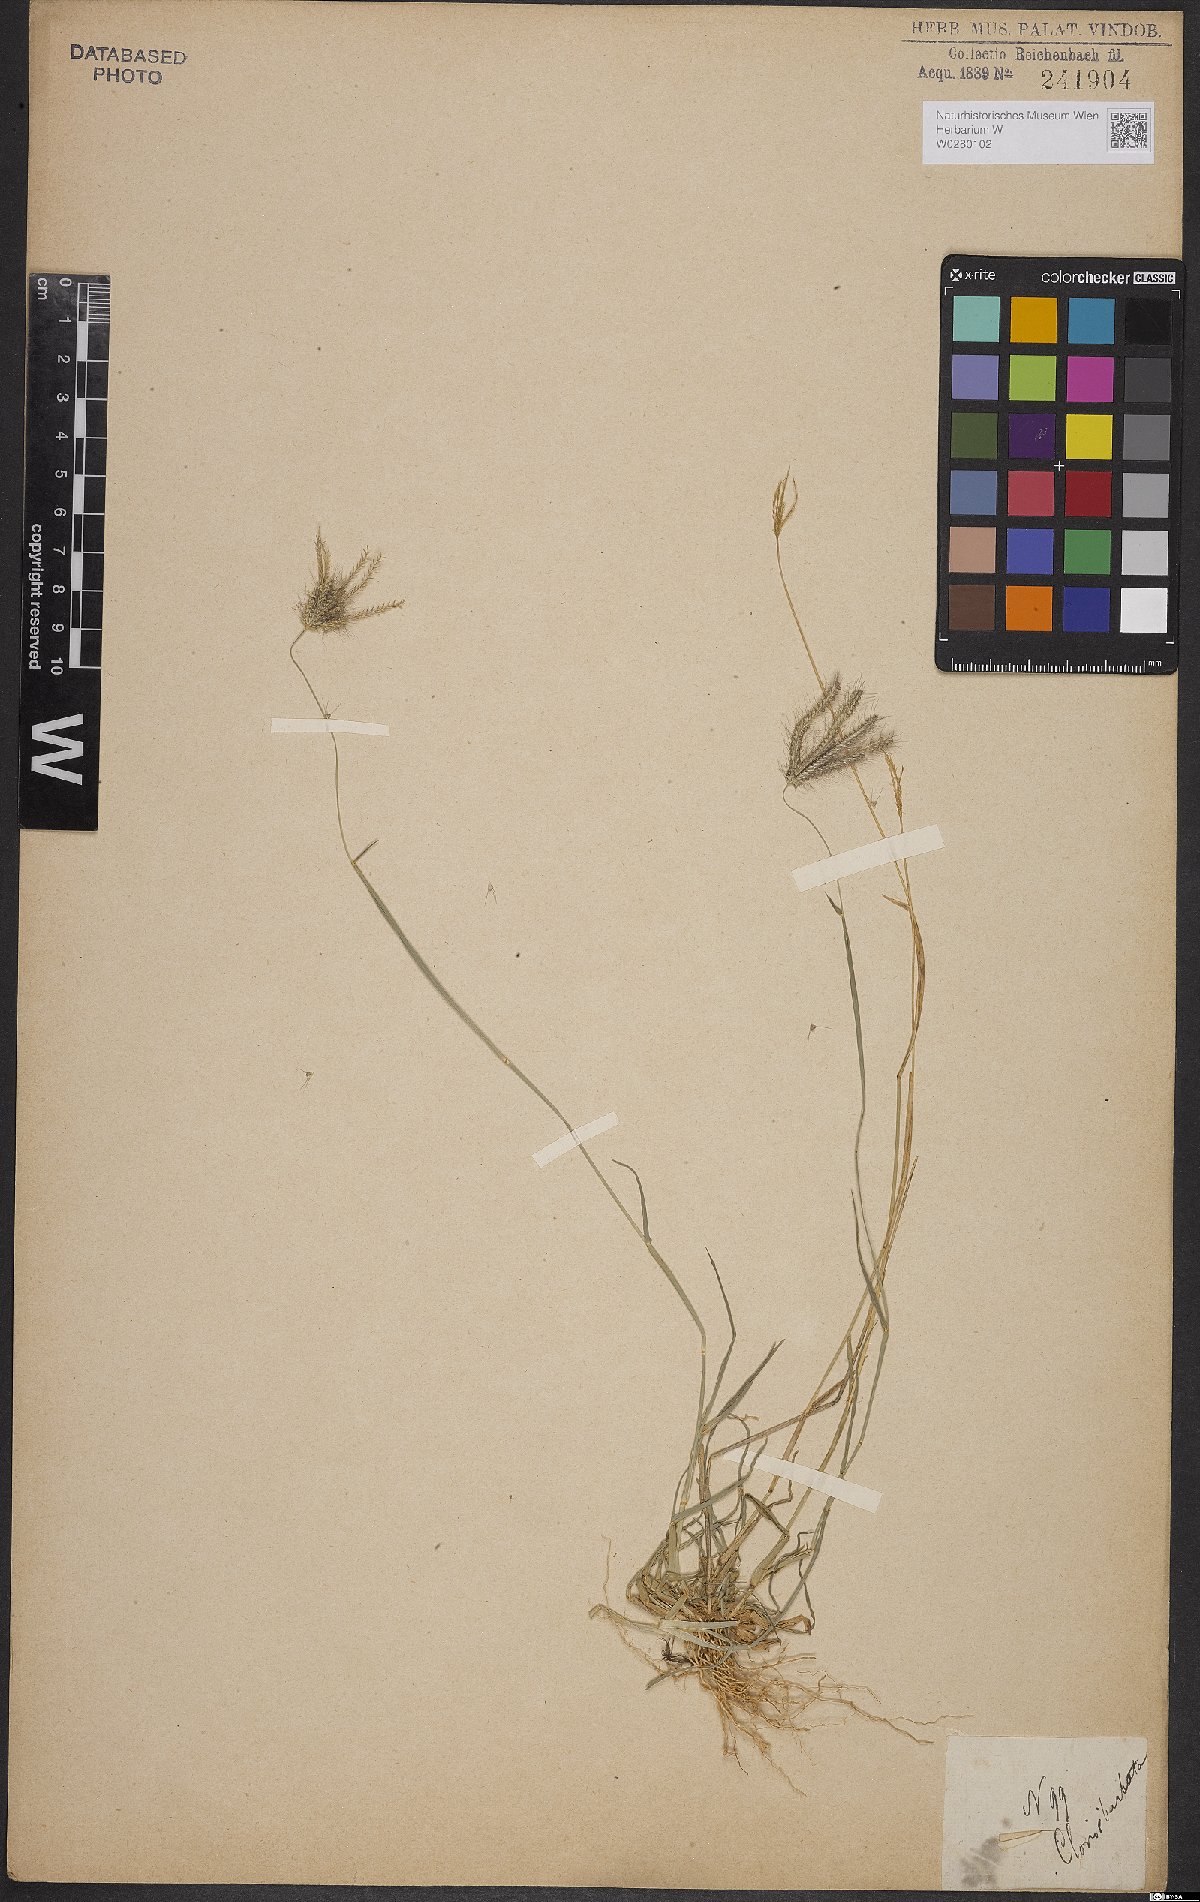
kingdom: Plantae
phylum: Tracheophyta
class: Liliopsida
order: Poales
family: Poaceae
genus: Chloris
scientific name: Chloris barbata
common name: Swollen fingergrass
